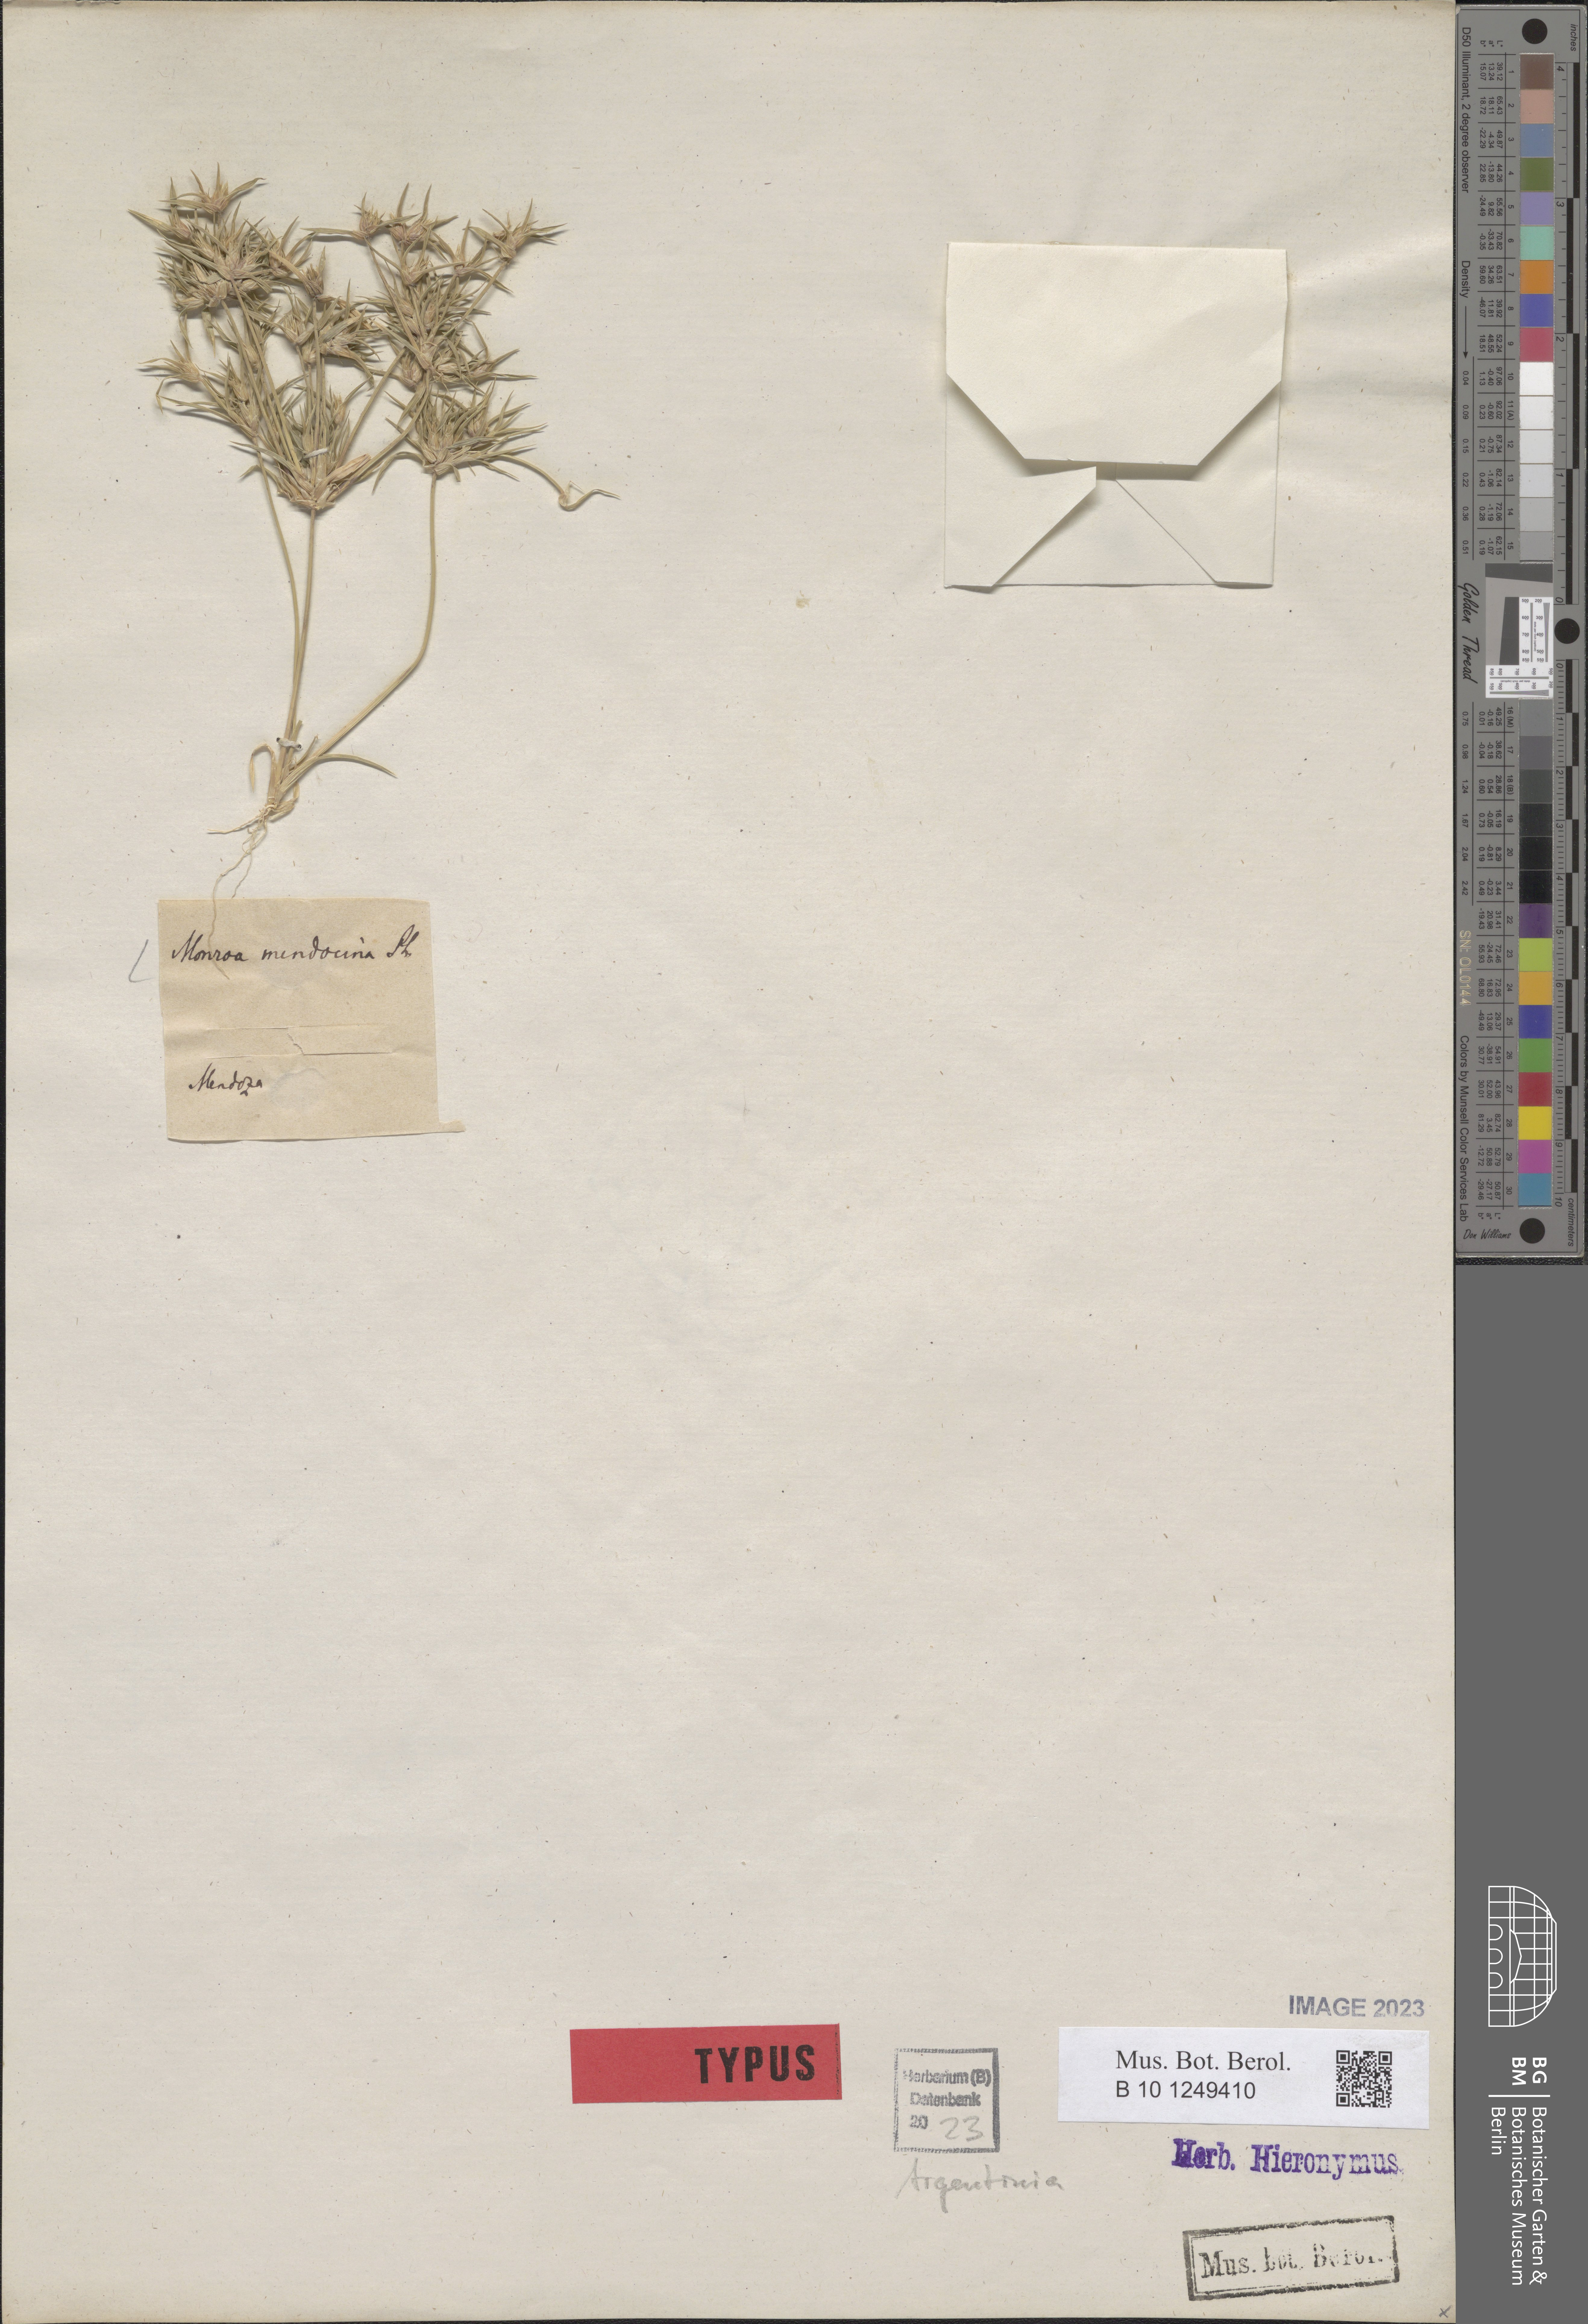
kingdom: Plantae
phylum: Tracheophyta
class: Liliopsida
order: Poales
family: Poaceae
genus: Munroa
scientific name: Munroa mendocina
